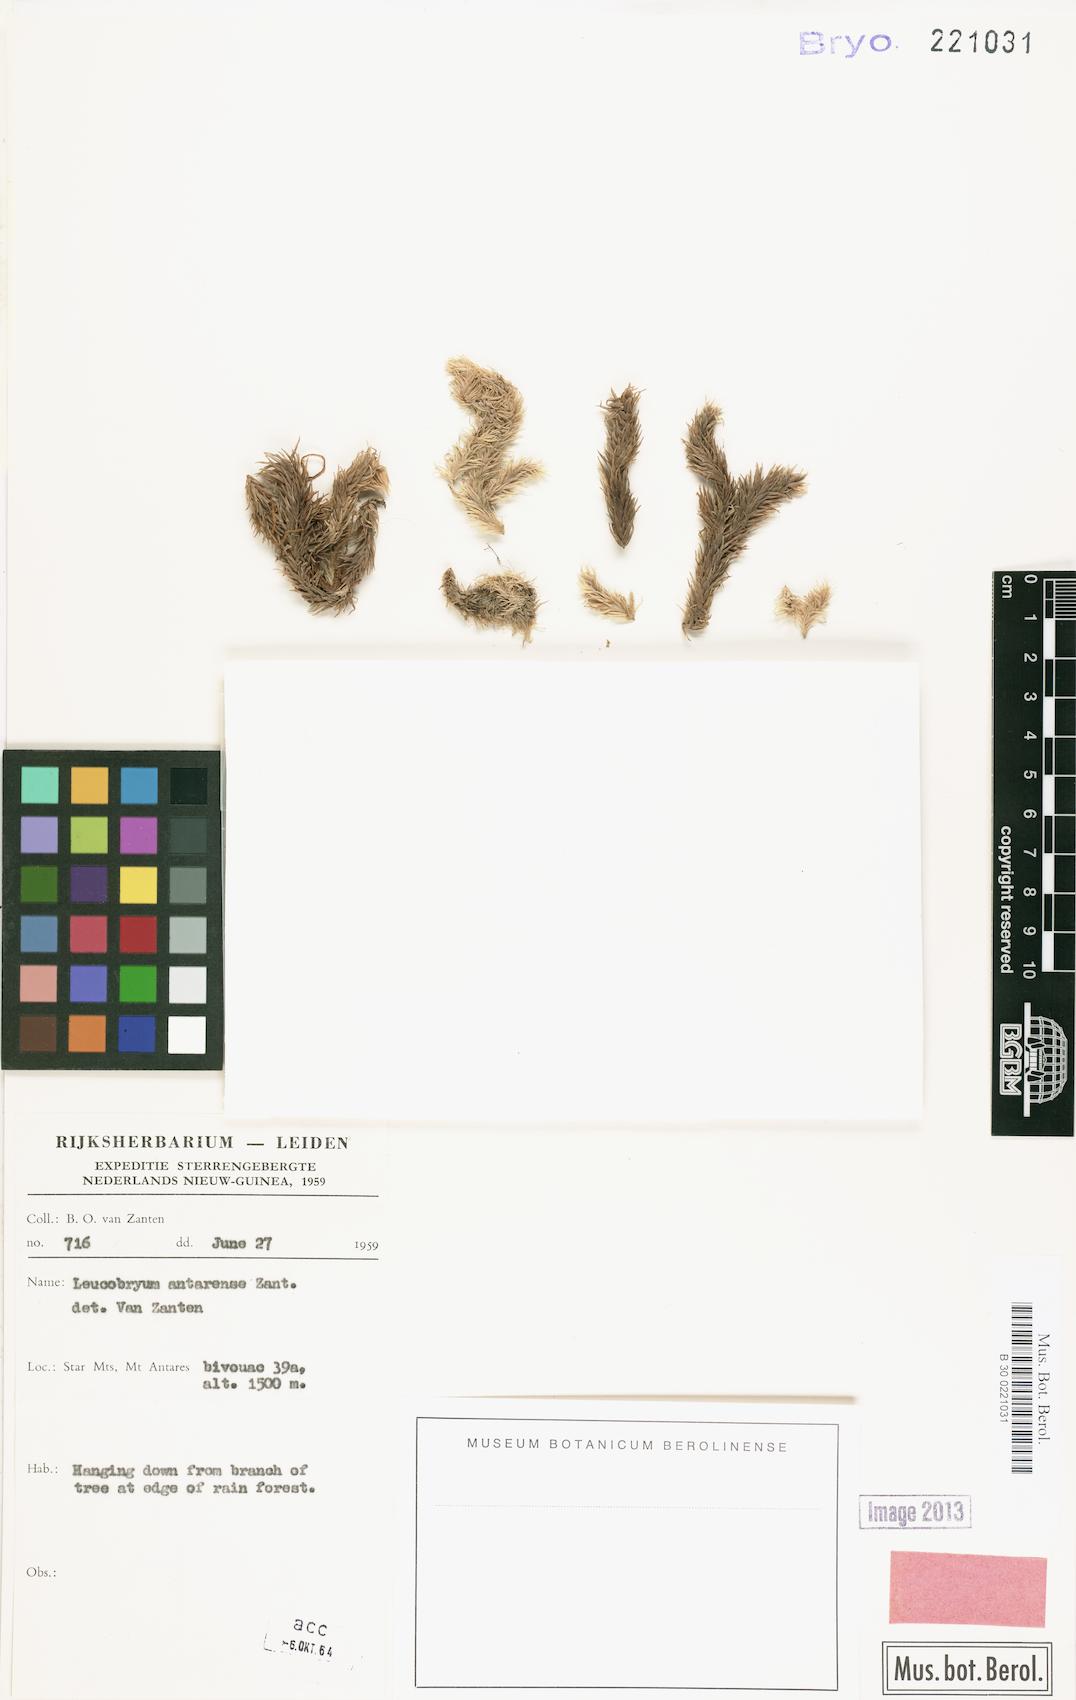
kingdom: Plantae
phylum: Bryophyta
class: Bryopsida
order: Dicranales
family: Leucobryaceae
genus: Leucobryum
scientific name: Leucobryum javense
